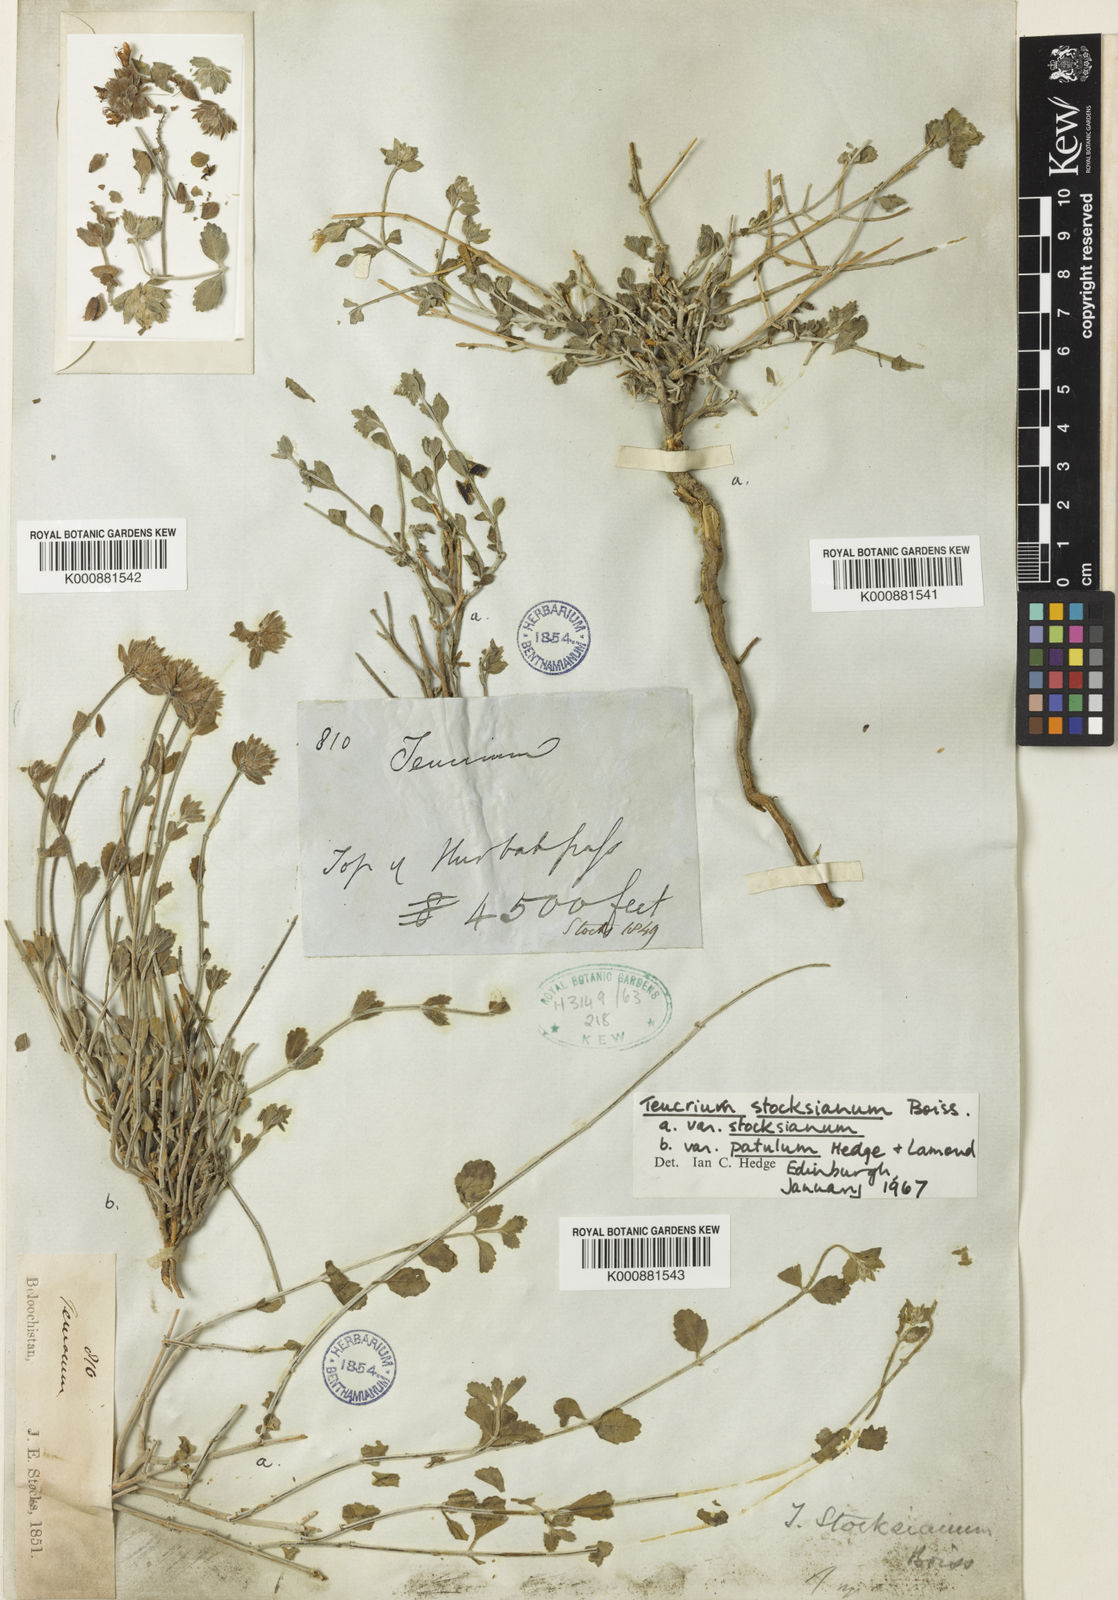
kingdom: Plantae
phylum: Tracheophyta
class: Magnoliopsida
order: Lamiales
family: Lamiaceae
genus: Teucrium
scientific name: Teucrium stocksianum
